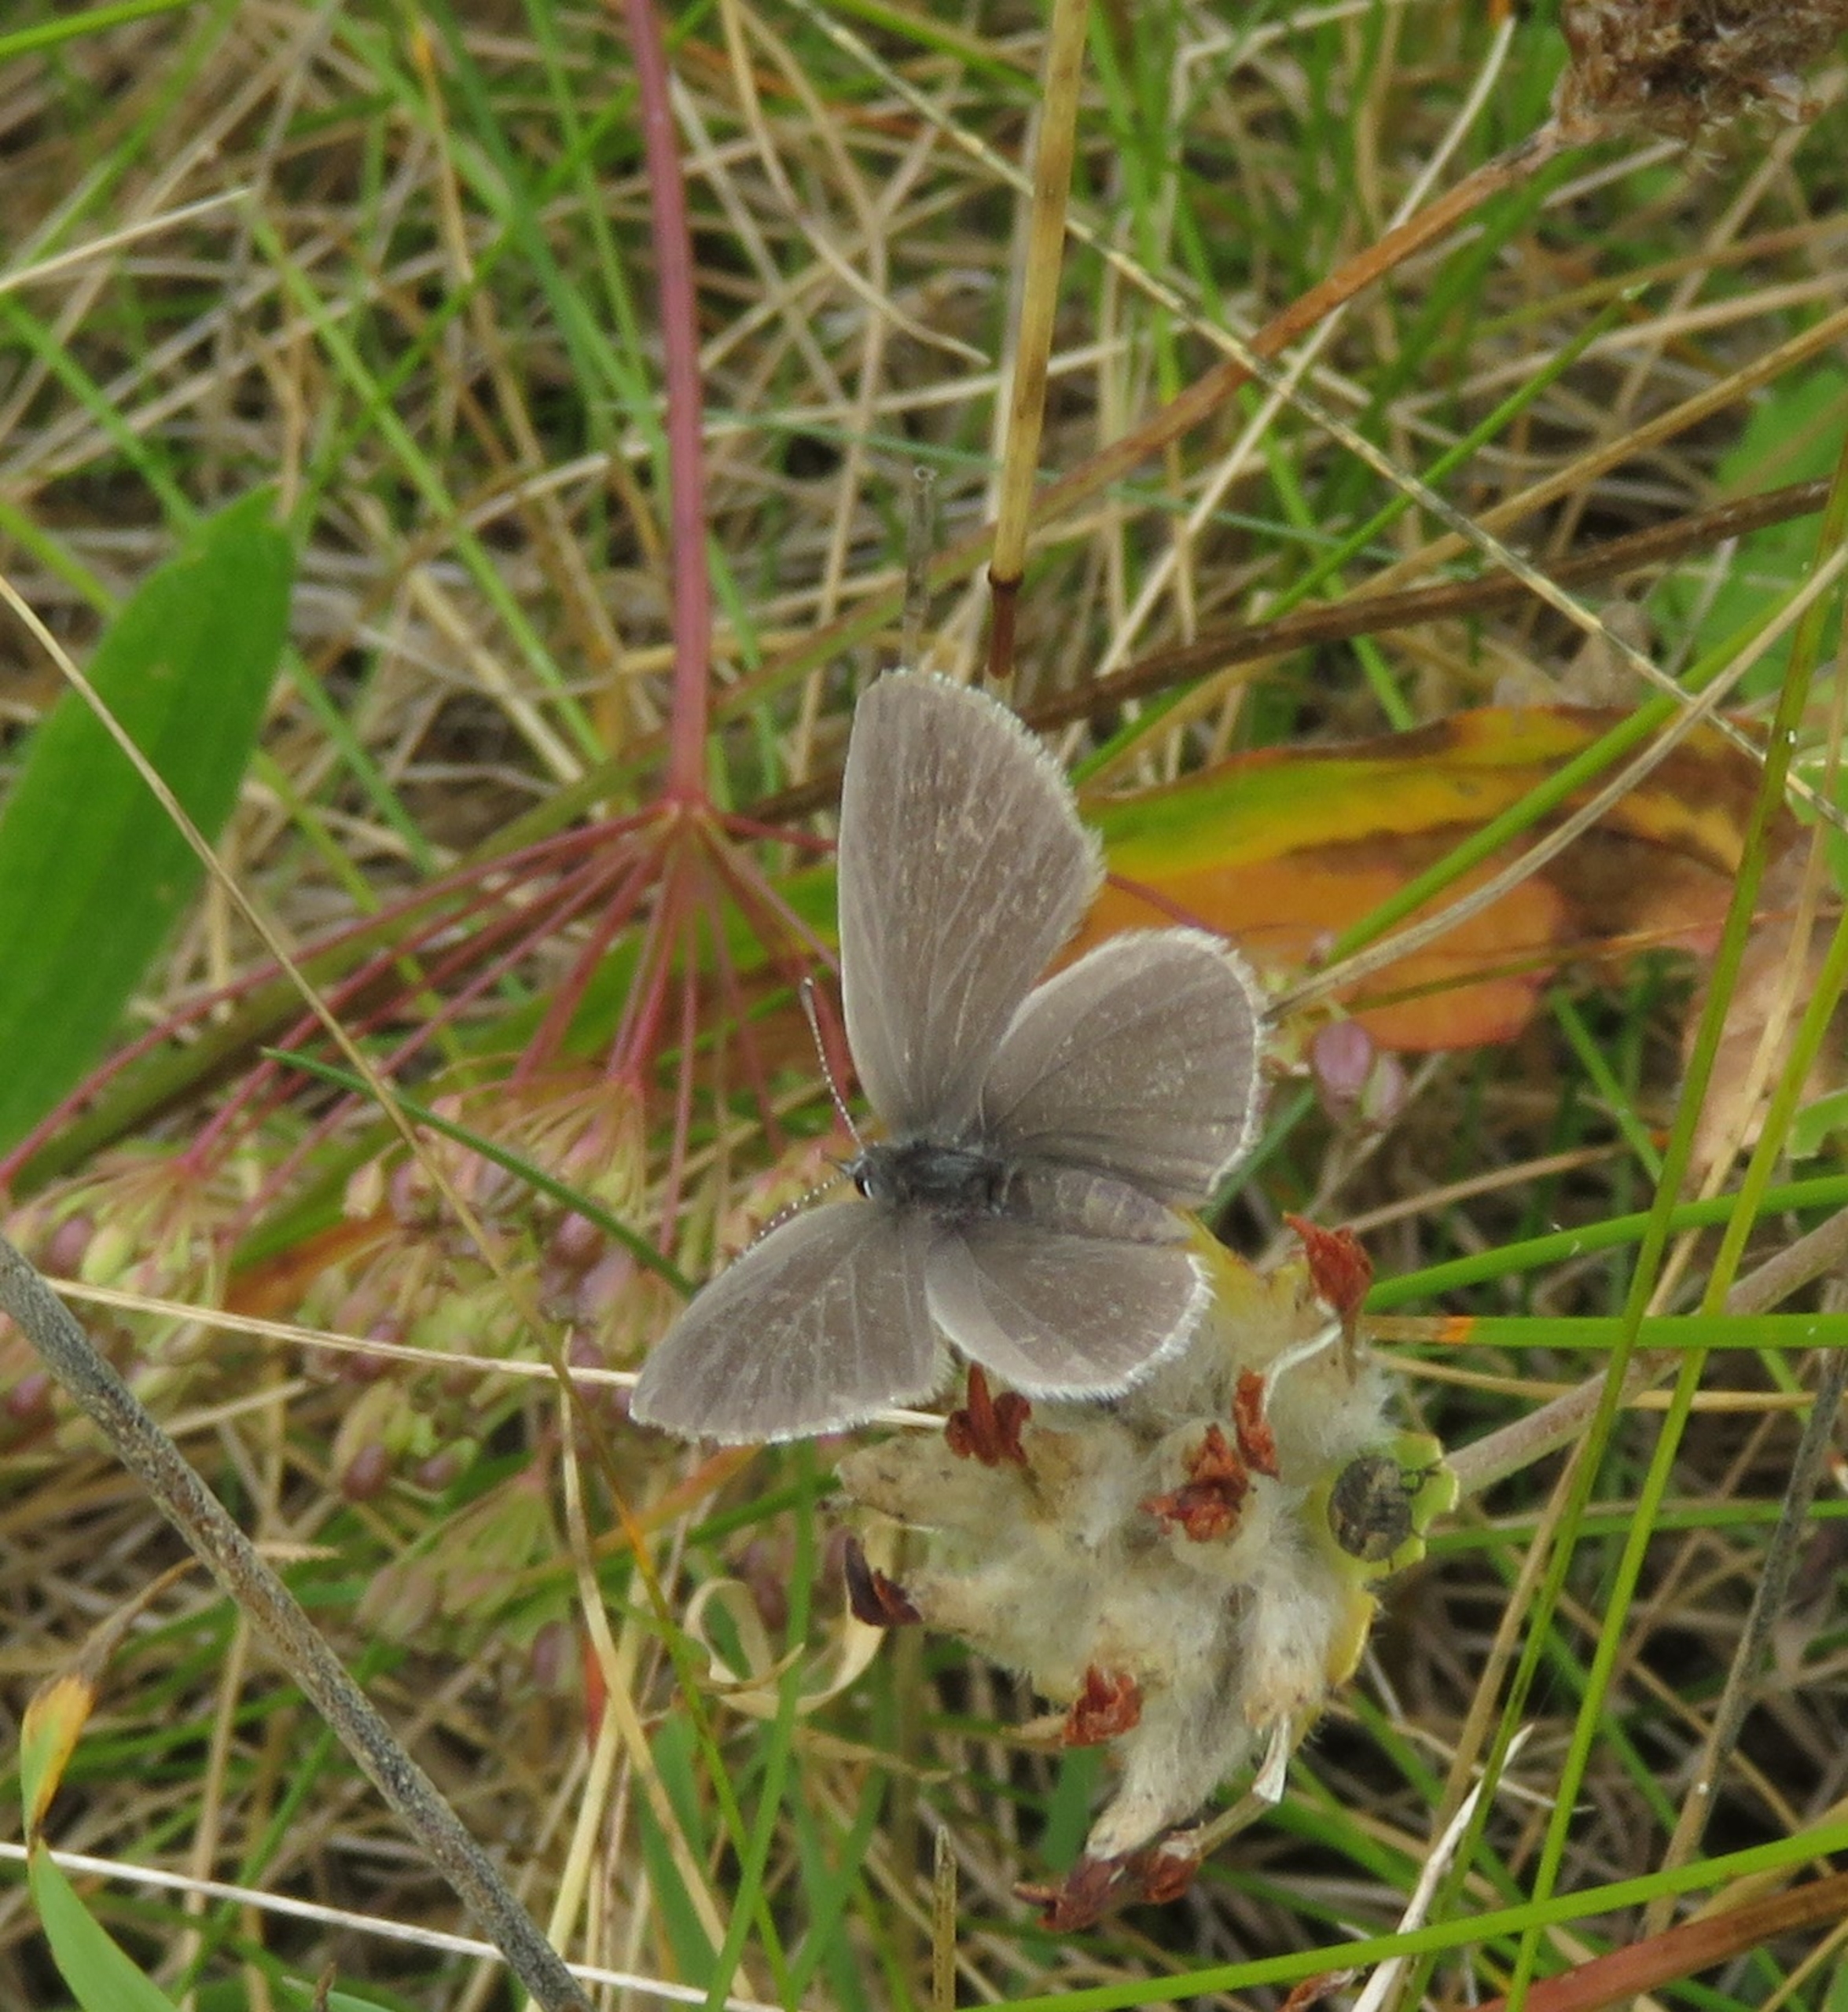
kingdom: Animalia
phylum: Arthropoda
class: Insecta
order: Lepidoptera
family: Lycaenidae
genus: Cupido
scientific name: Cupido minimus
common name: Dværgblåfugl
